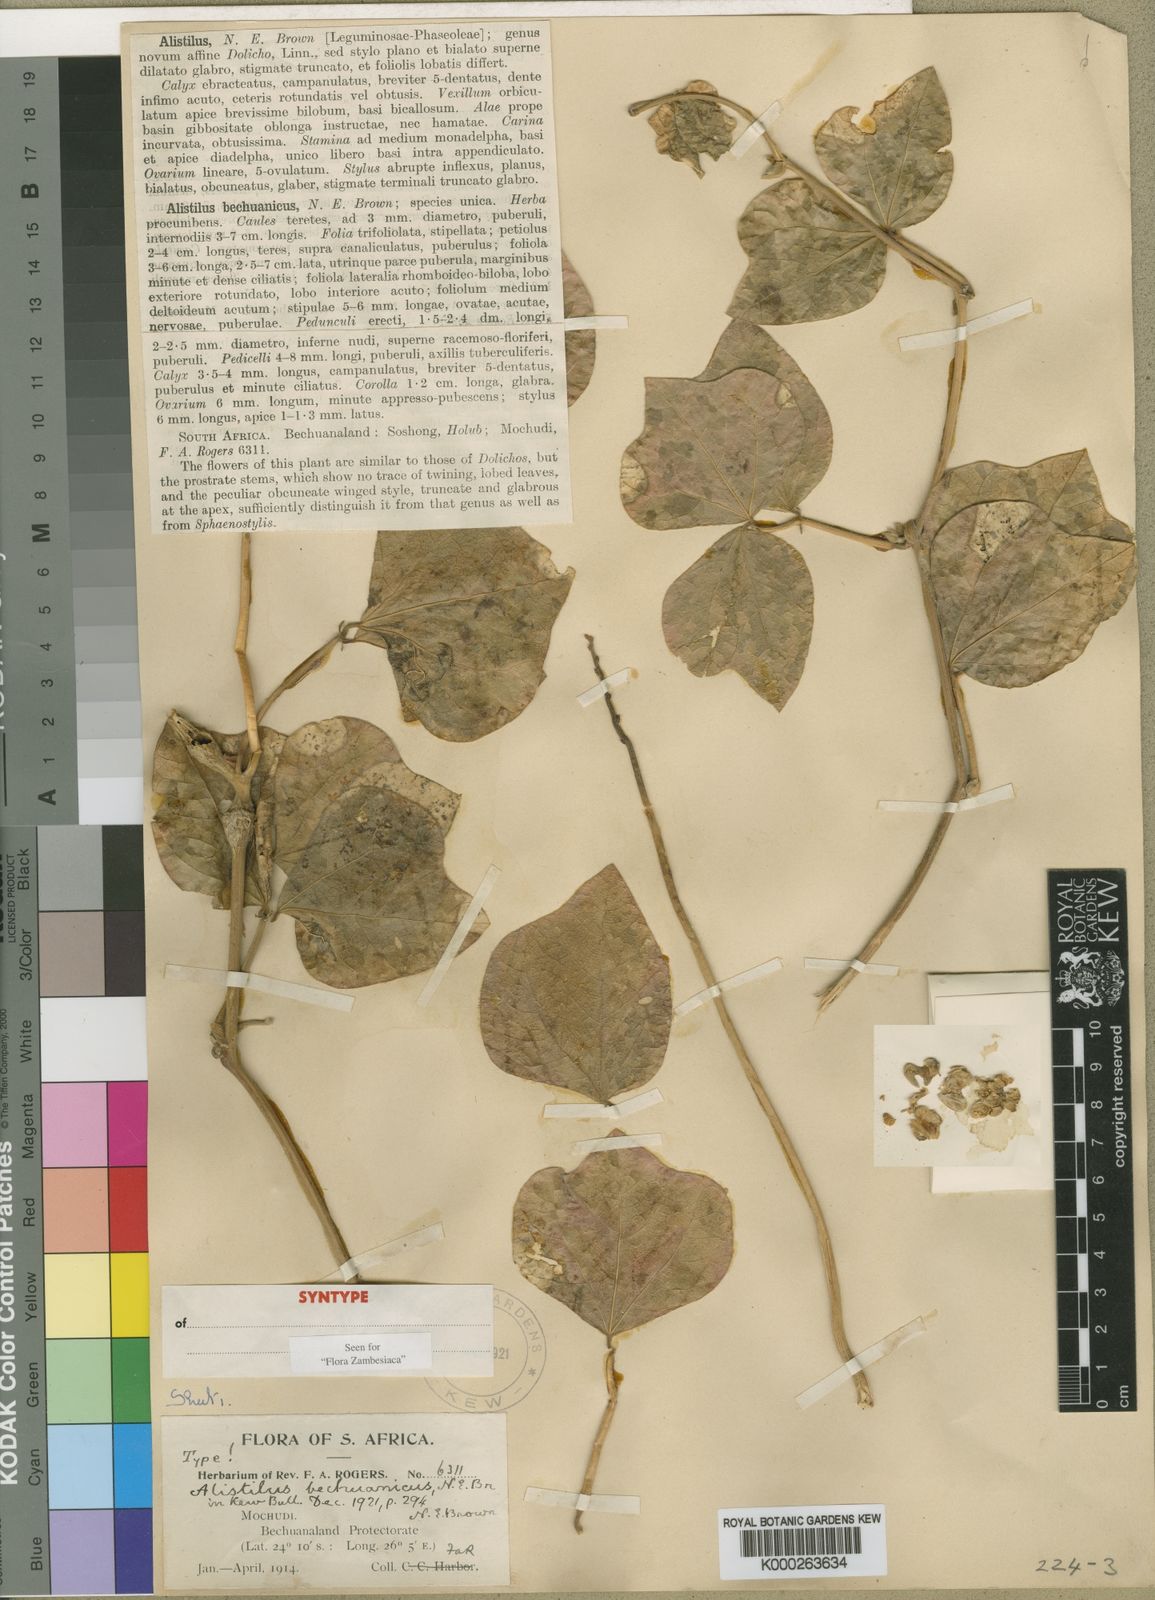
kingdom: Plantae
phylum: Tracheophyta
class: Magnoliopsida
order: Fabales
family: Fabaceae
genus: Alistilus
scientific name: Alistilus bechuanicus
